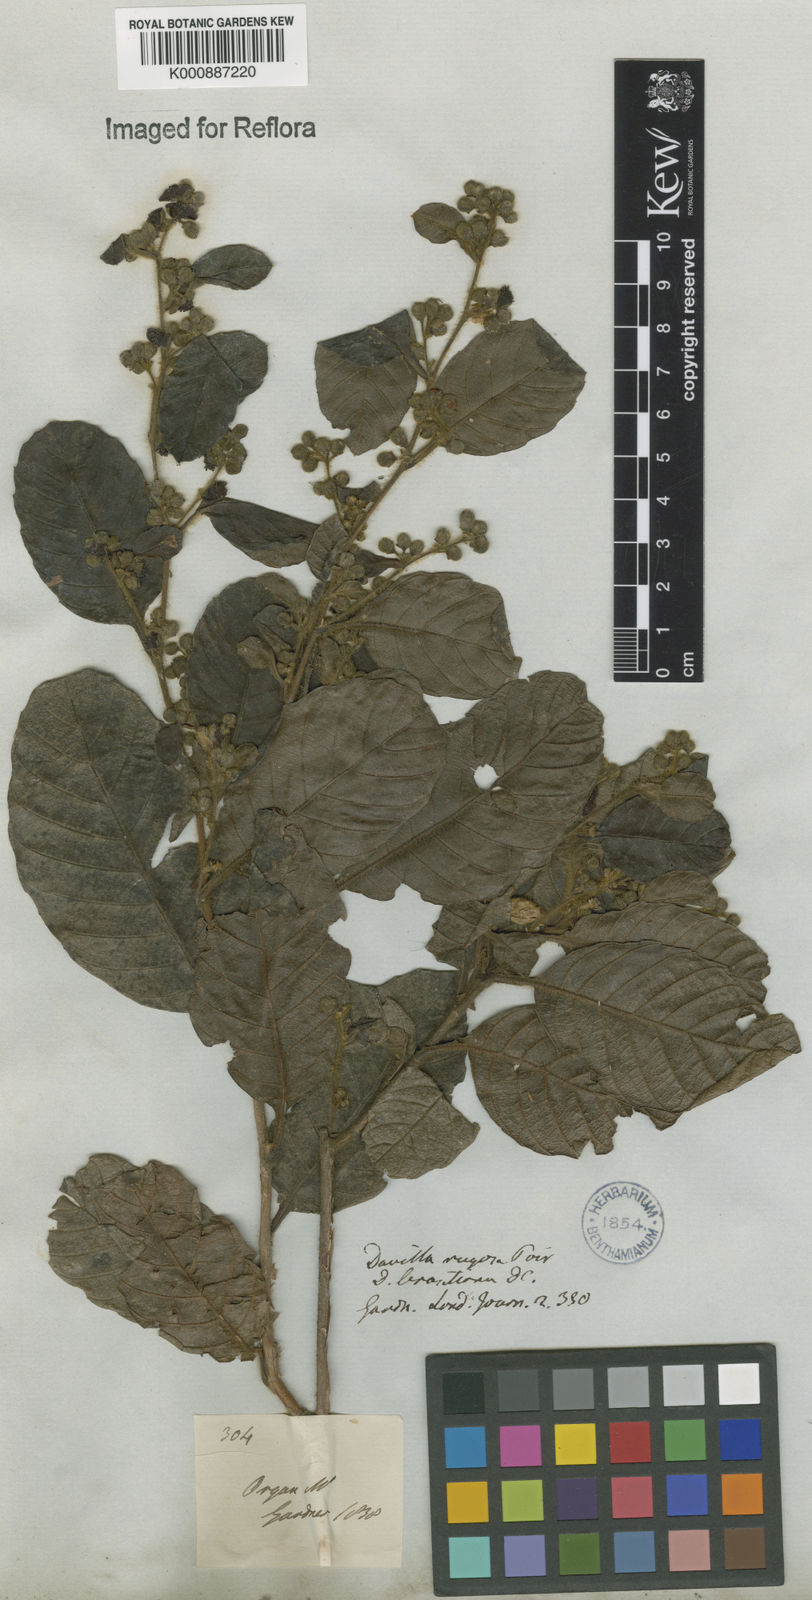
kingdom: Plantae
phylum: Tracheophyta
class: Magnoliopsida
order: Dilleniales
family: Dilleniaceae
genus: Davilla
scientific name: Davilla rugosa
